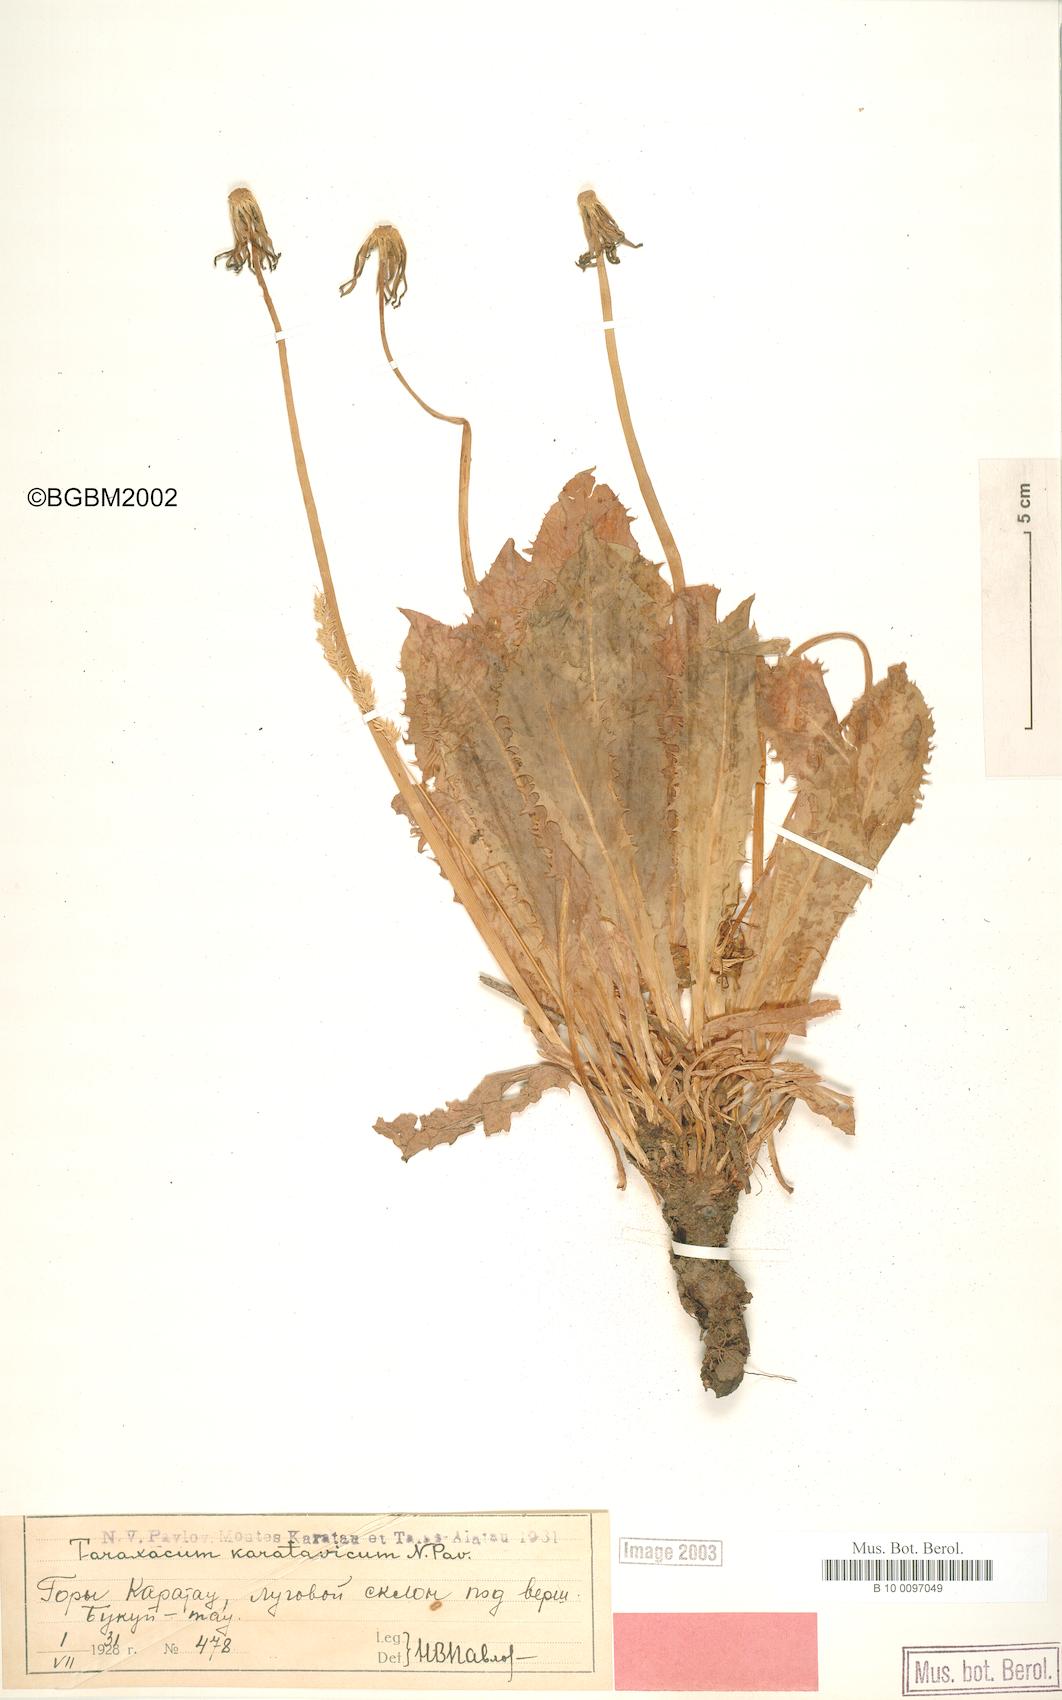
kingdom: Plantae
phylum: Tracheophyta
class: Magnoliopsida
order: Asterales
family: Asteraceae
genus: Taraxacum
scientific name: Taraxacum karatavicum
